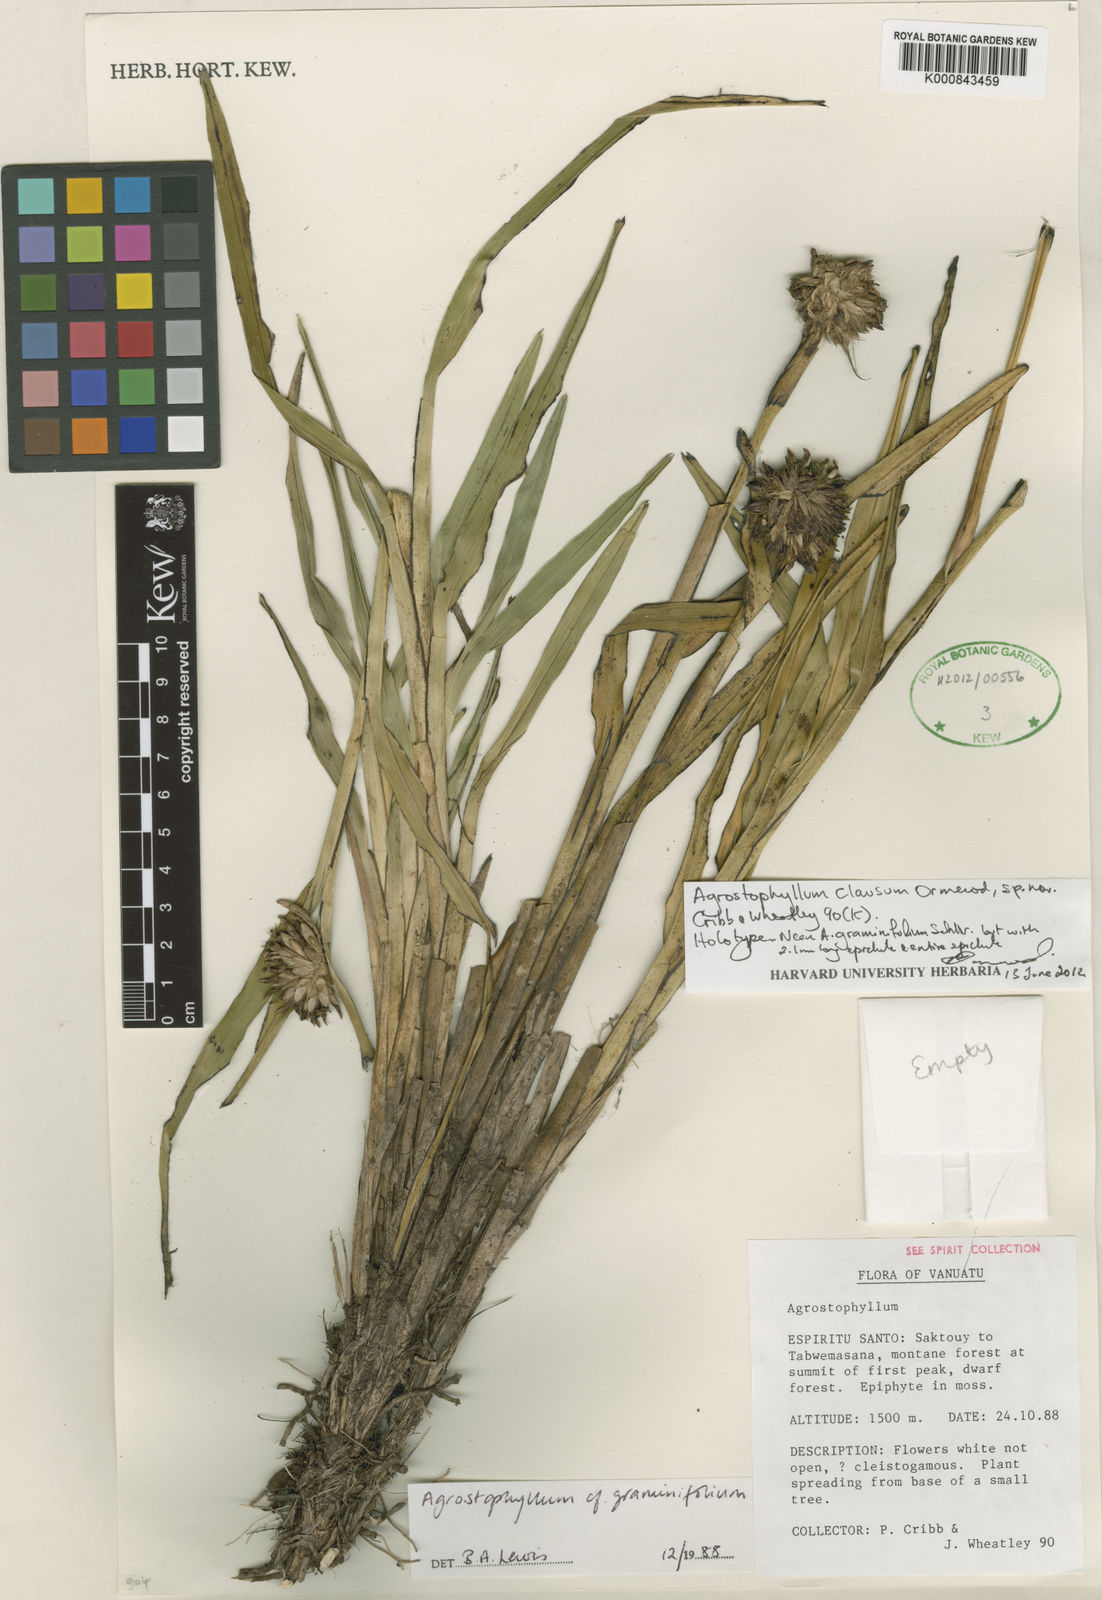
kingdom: Plantae
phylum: Tracheophyta
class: Liliopsida
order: Asparagales
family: Orchidaceae
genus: Agrostophyllum
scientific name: Agrostophyllum clausum
